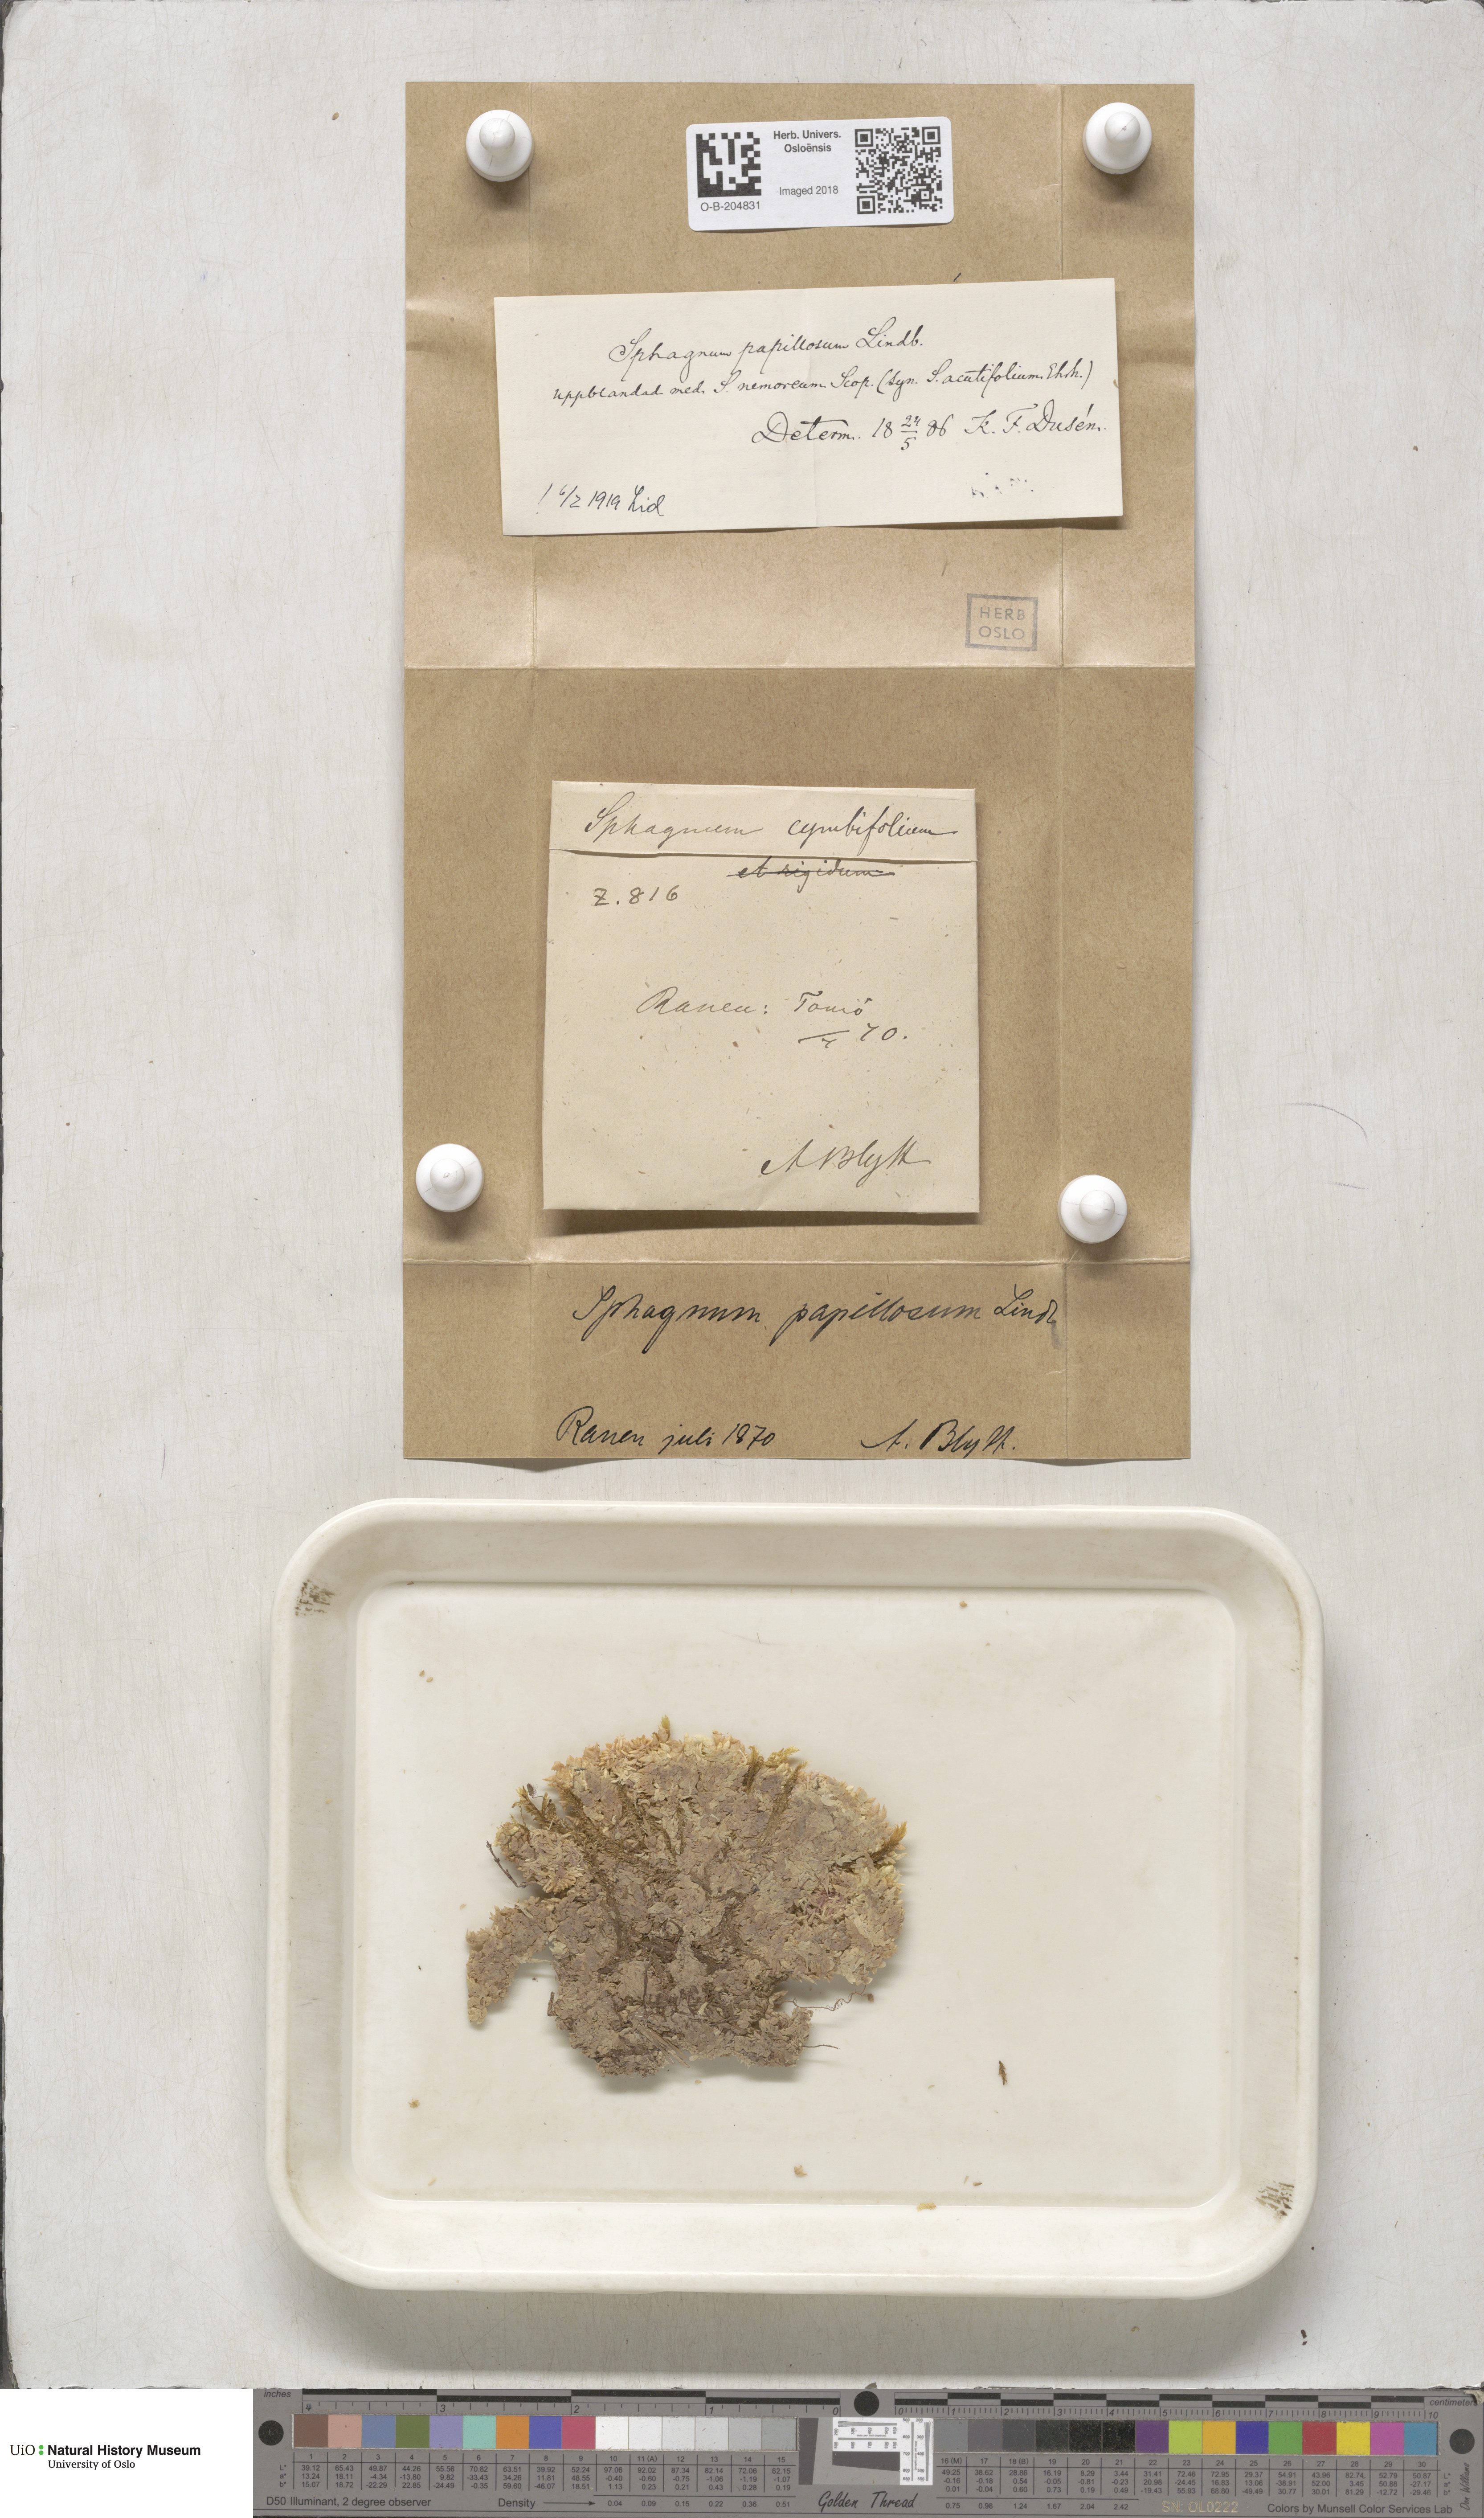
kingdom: Plantae
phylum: Bryophyta
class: Sphagnopsida
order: Sphagnales
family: Sphagnaceae
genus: Sphagnum
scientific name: Sphagnum papillosum
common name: Papillose peat moss
